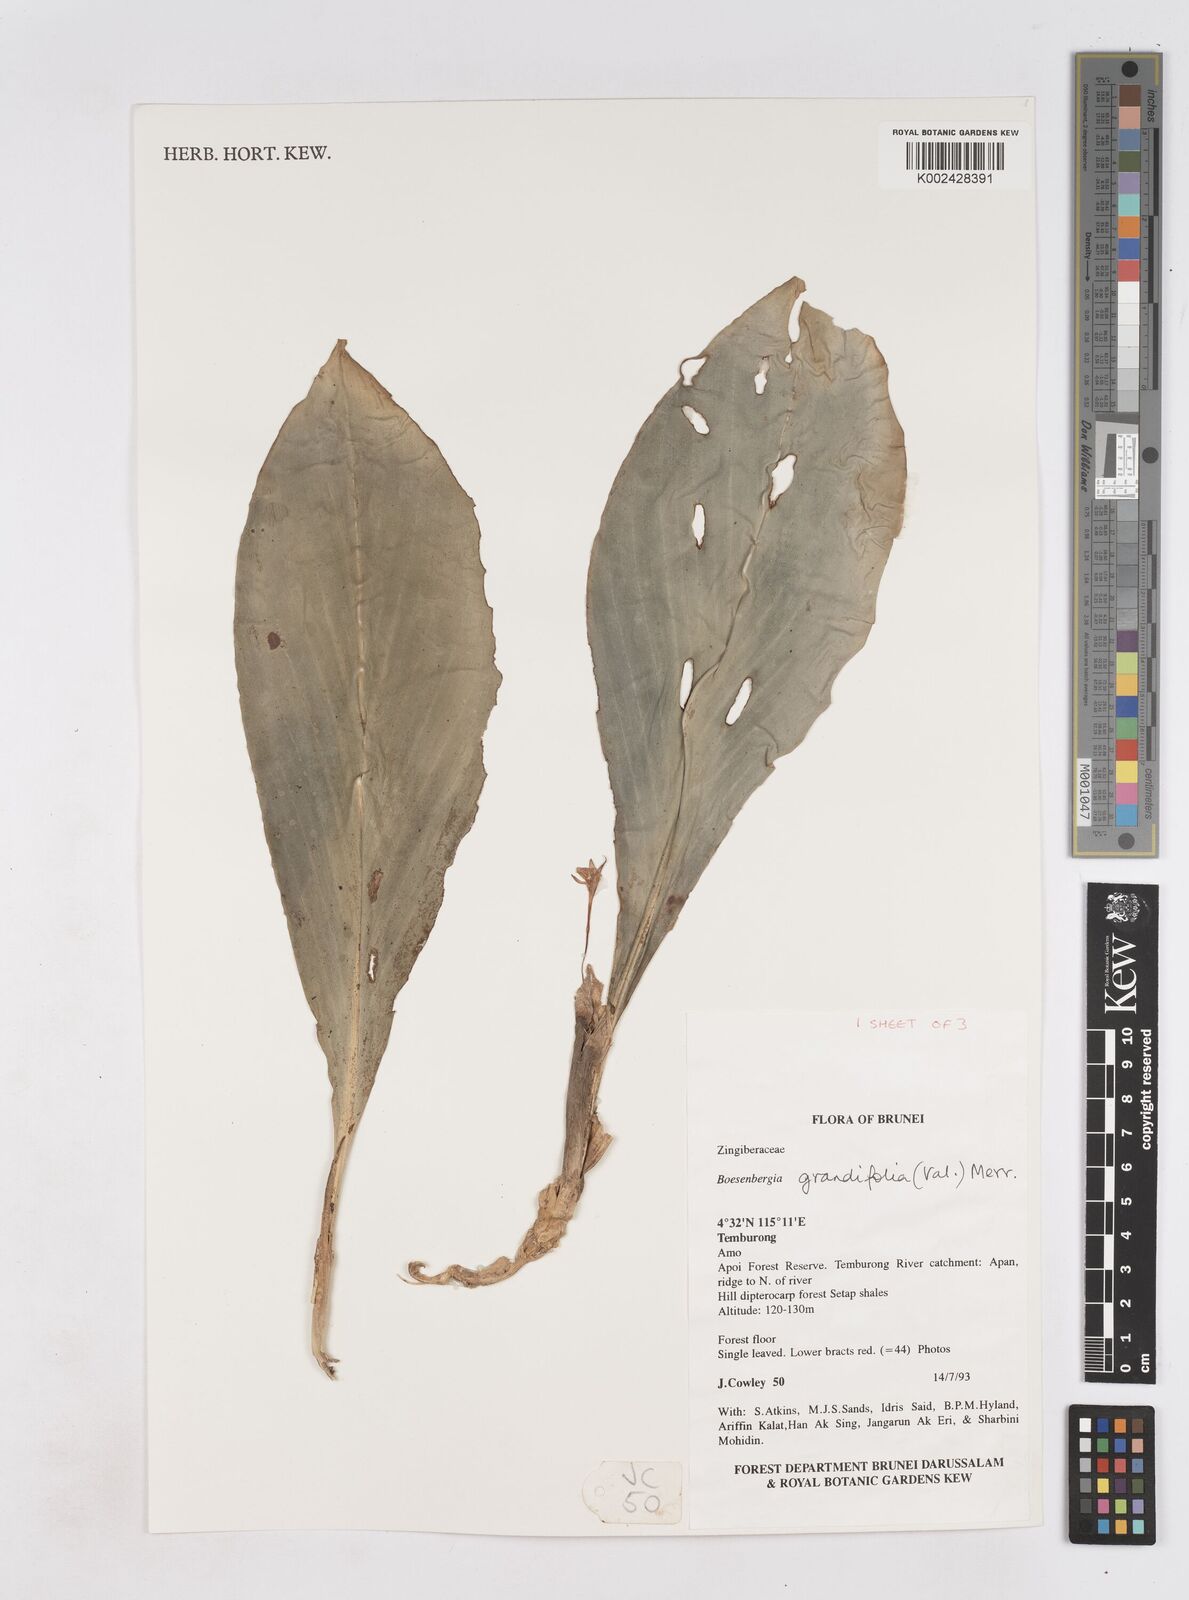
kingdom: Plantae
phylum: Tracheophyta
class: Liliopsida
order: Zingiberales
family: Zingiberaceae
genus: Boesenbergia
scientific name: Boesenbergia grandifolia
